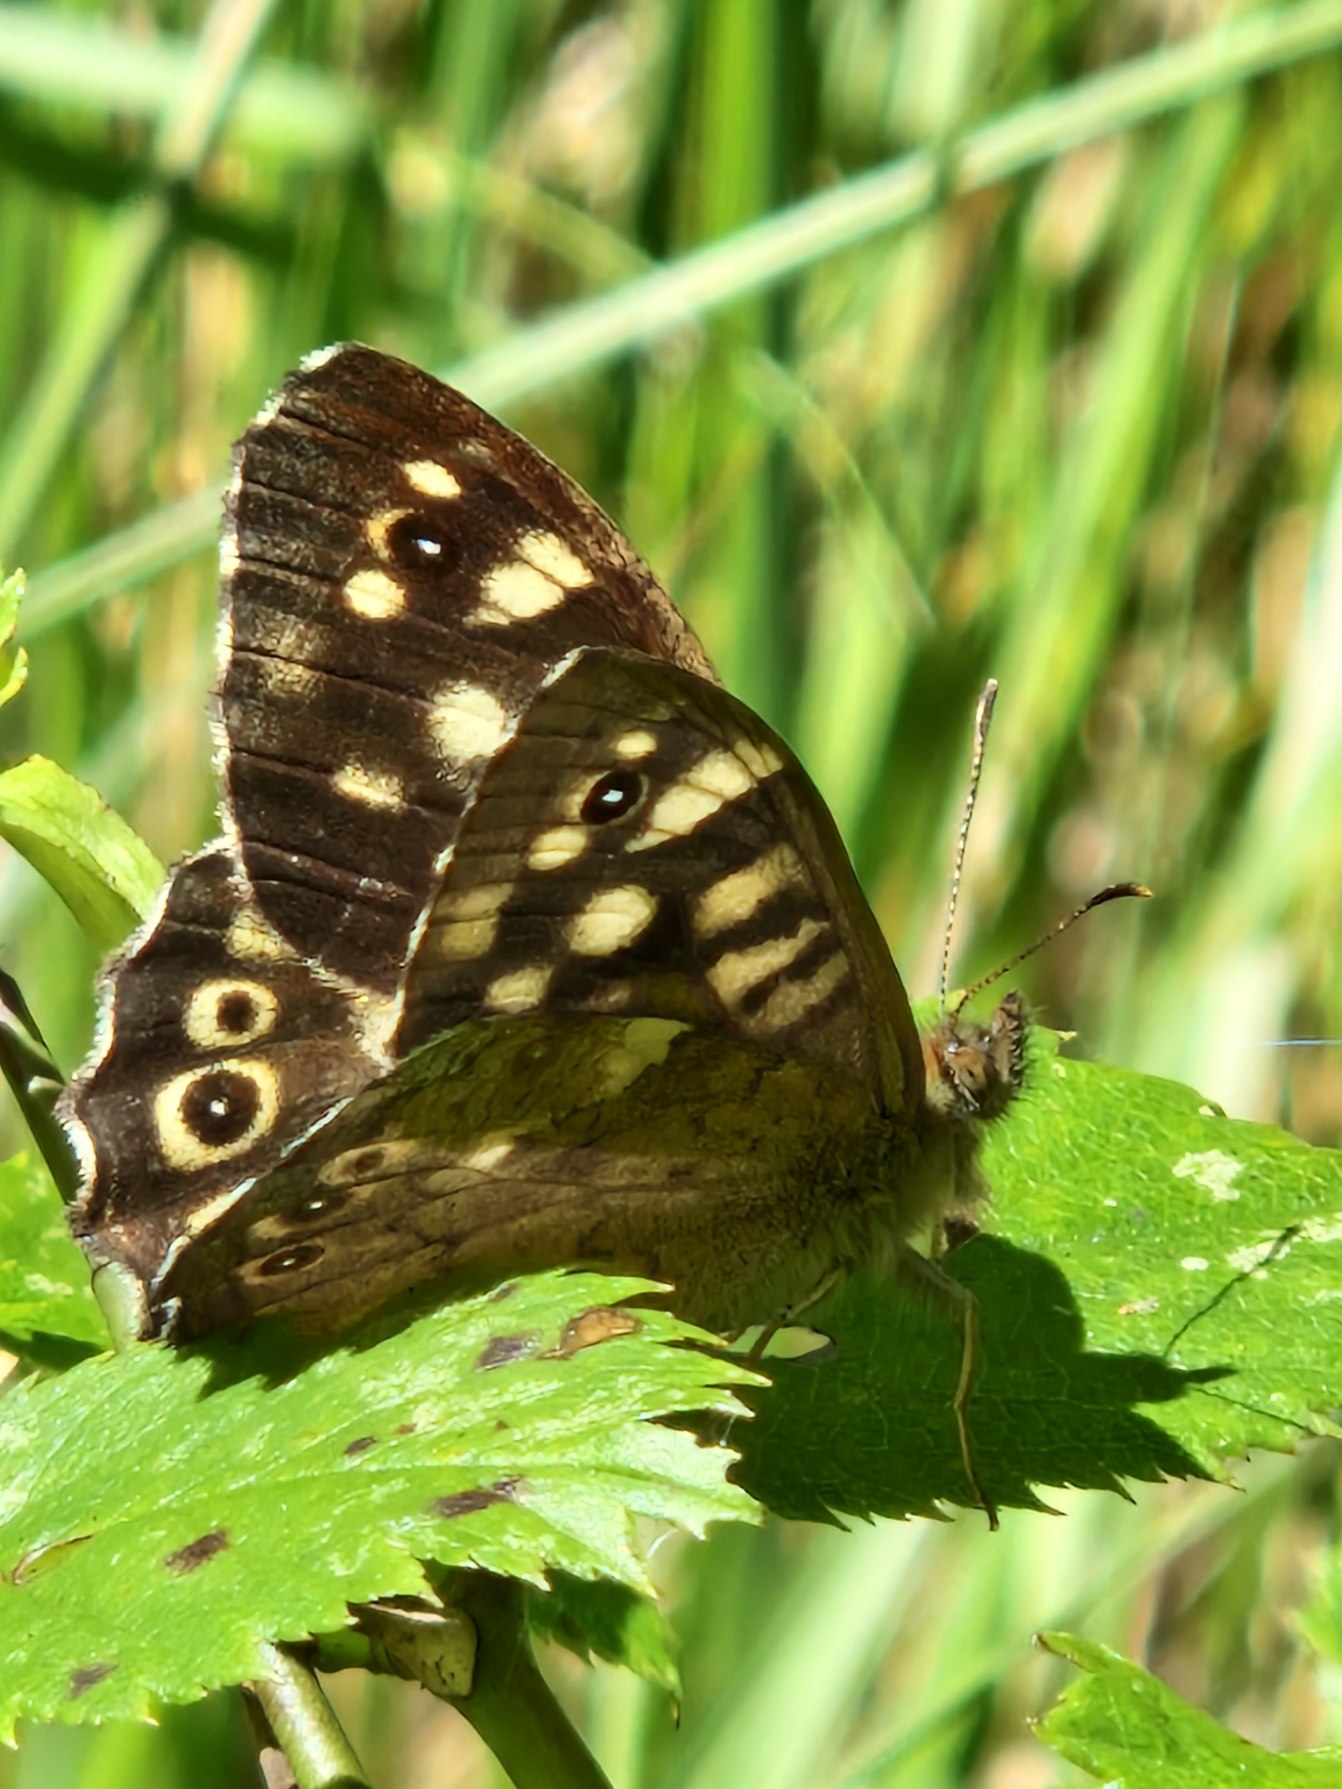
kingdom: Animalia
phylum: Arthropoda
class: Insecta
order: Lepidoptera
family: Nymphalidae
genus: Pararge
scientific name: Pararge aegeria
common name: Skovrandøje
